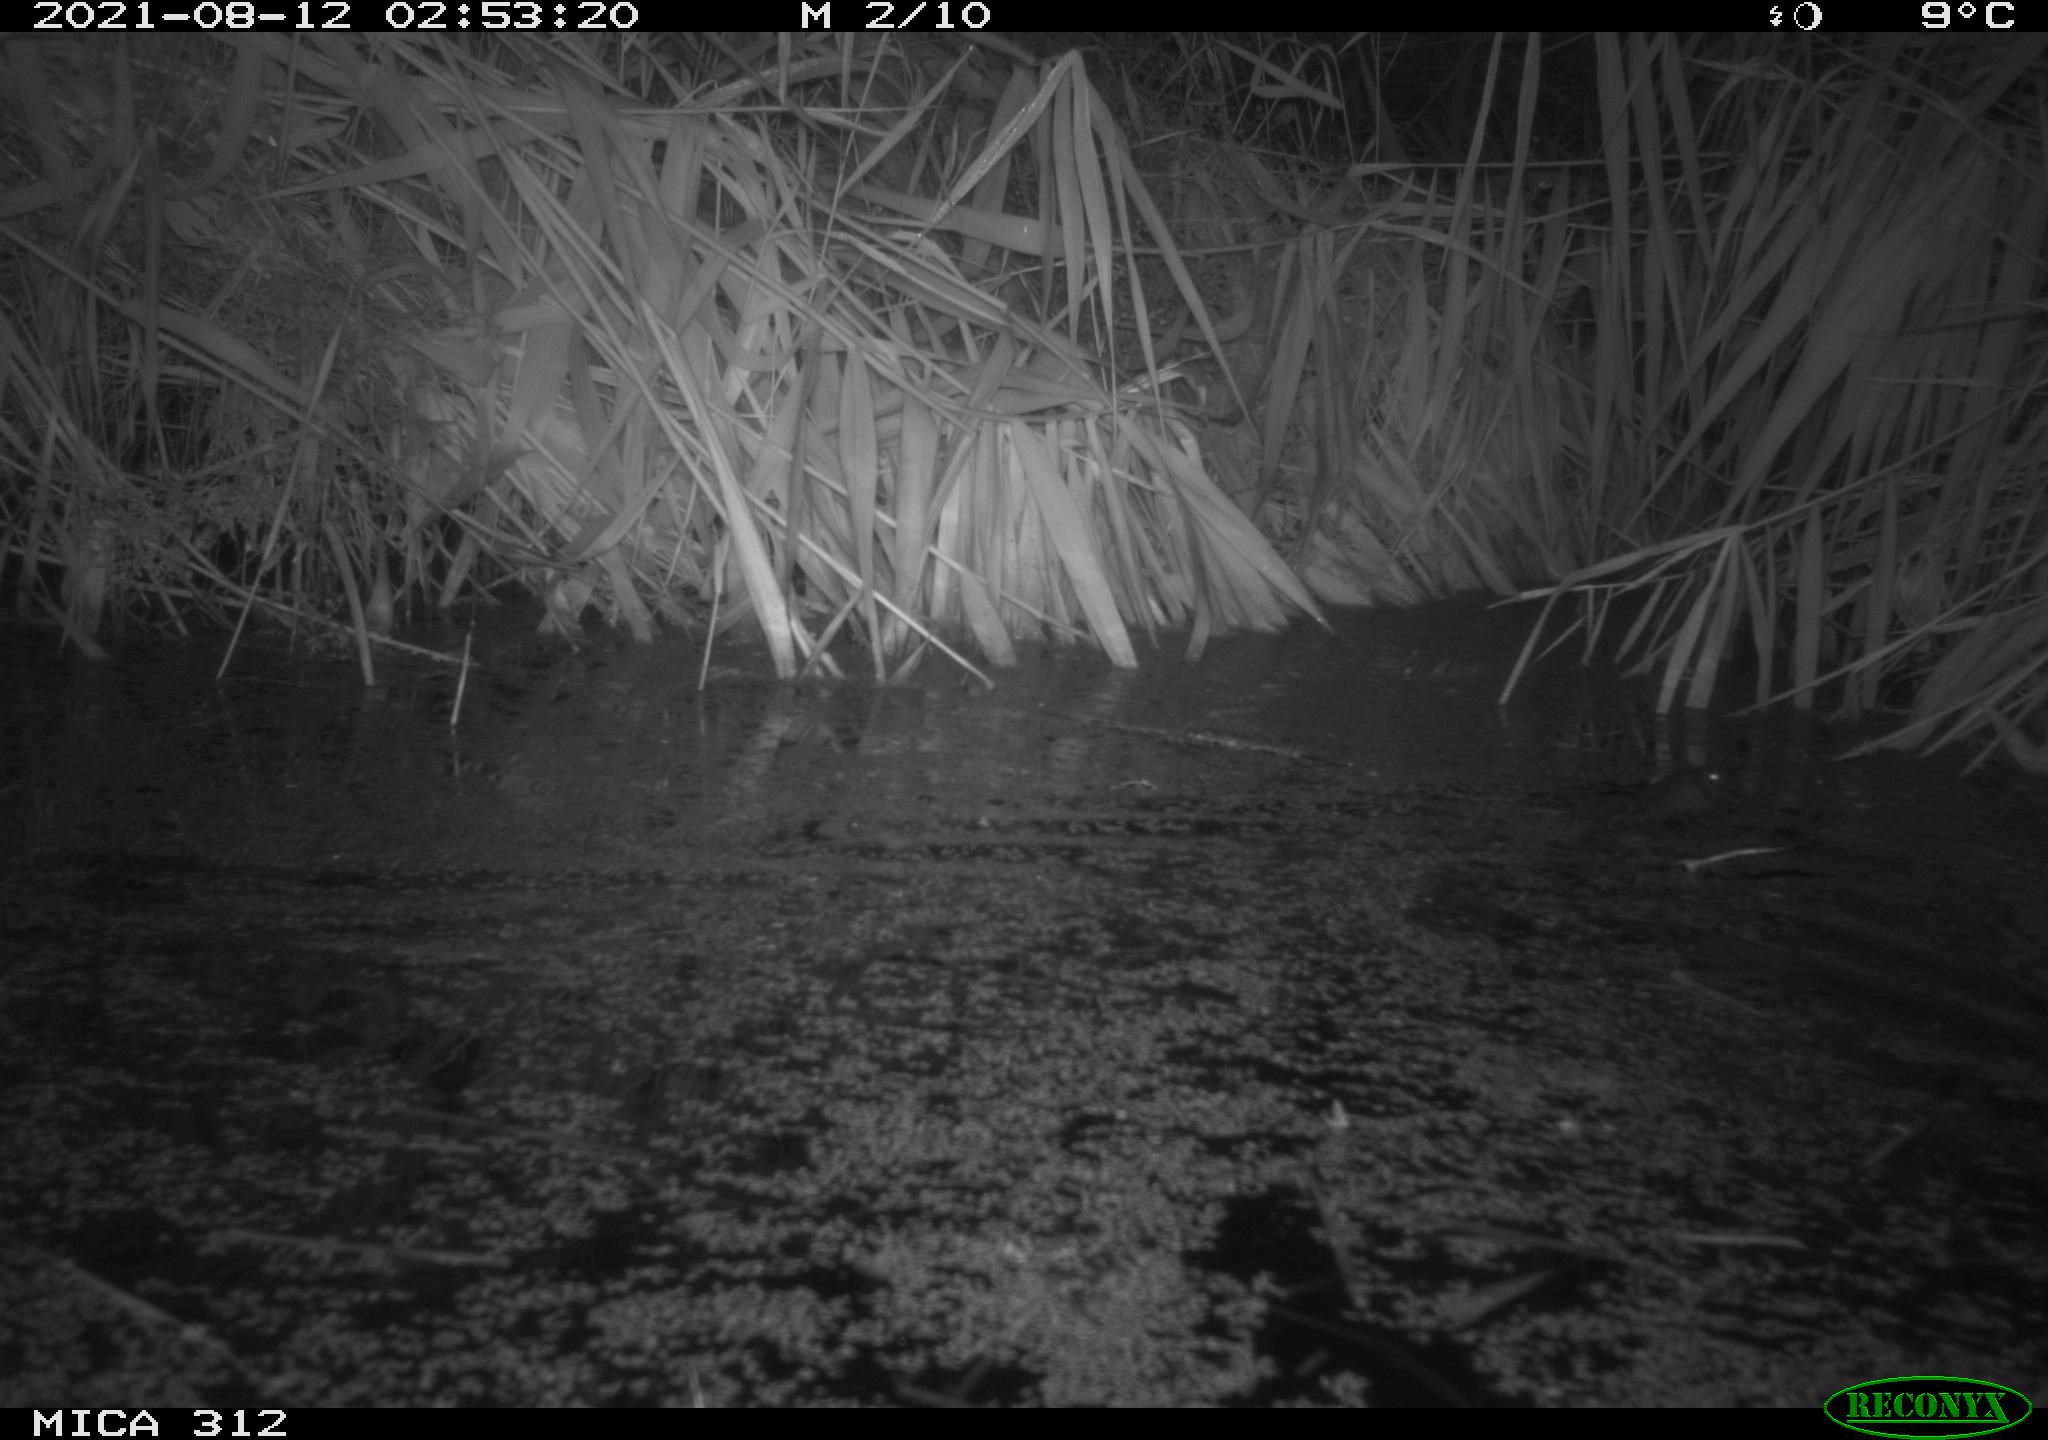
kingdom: Animalia
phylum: Chordata
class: Mammalia
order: Rodentia
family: Muridae
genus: Rattus
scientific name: Rattus norvegicus
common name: Brown rat
